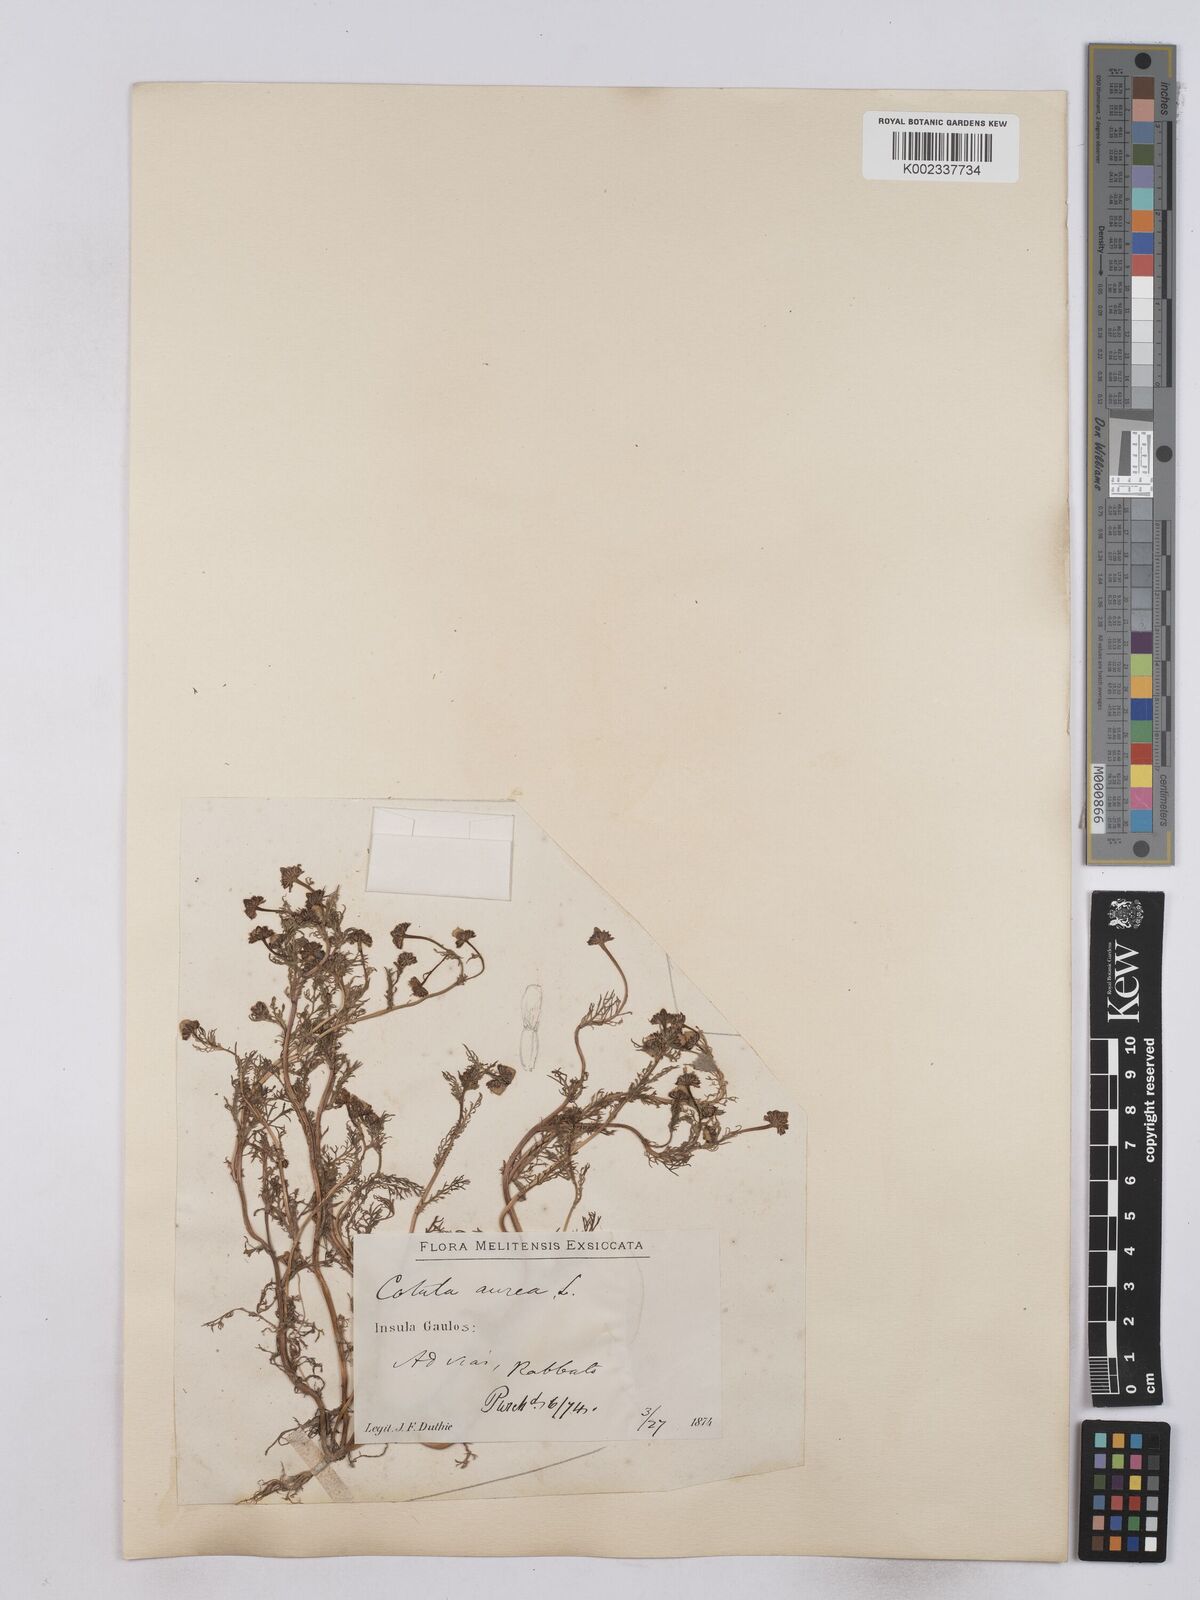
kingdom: Plantae
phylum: Tracheophyta
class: Magnoliopsida
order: Asterales
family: Asteraceae
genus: Matricaria
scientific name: Matricaria aurea
